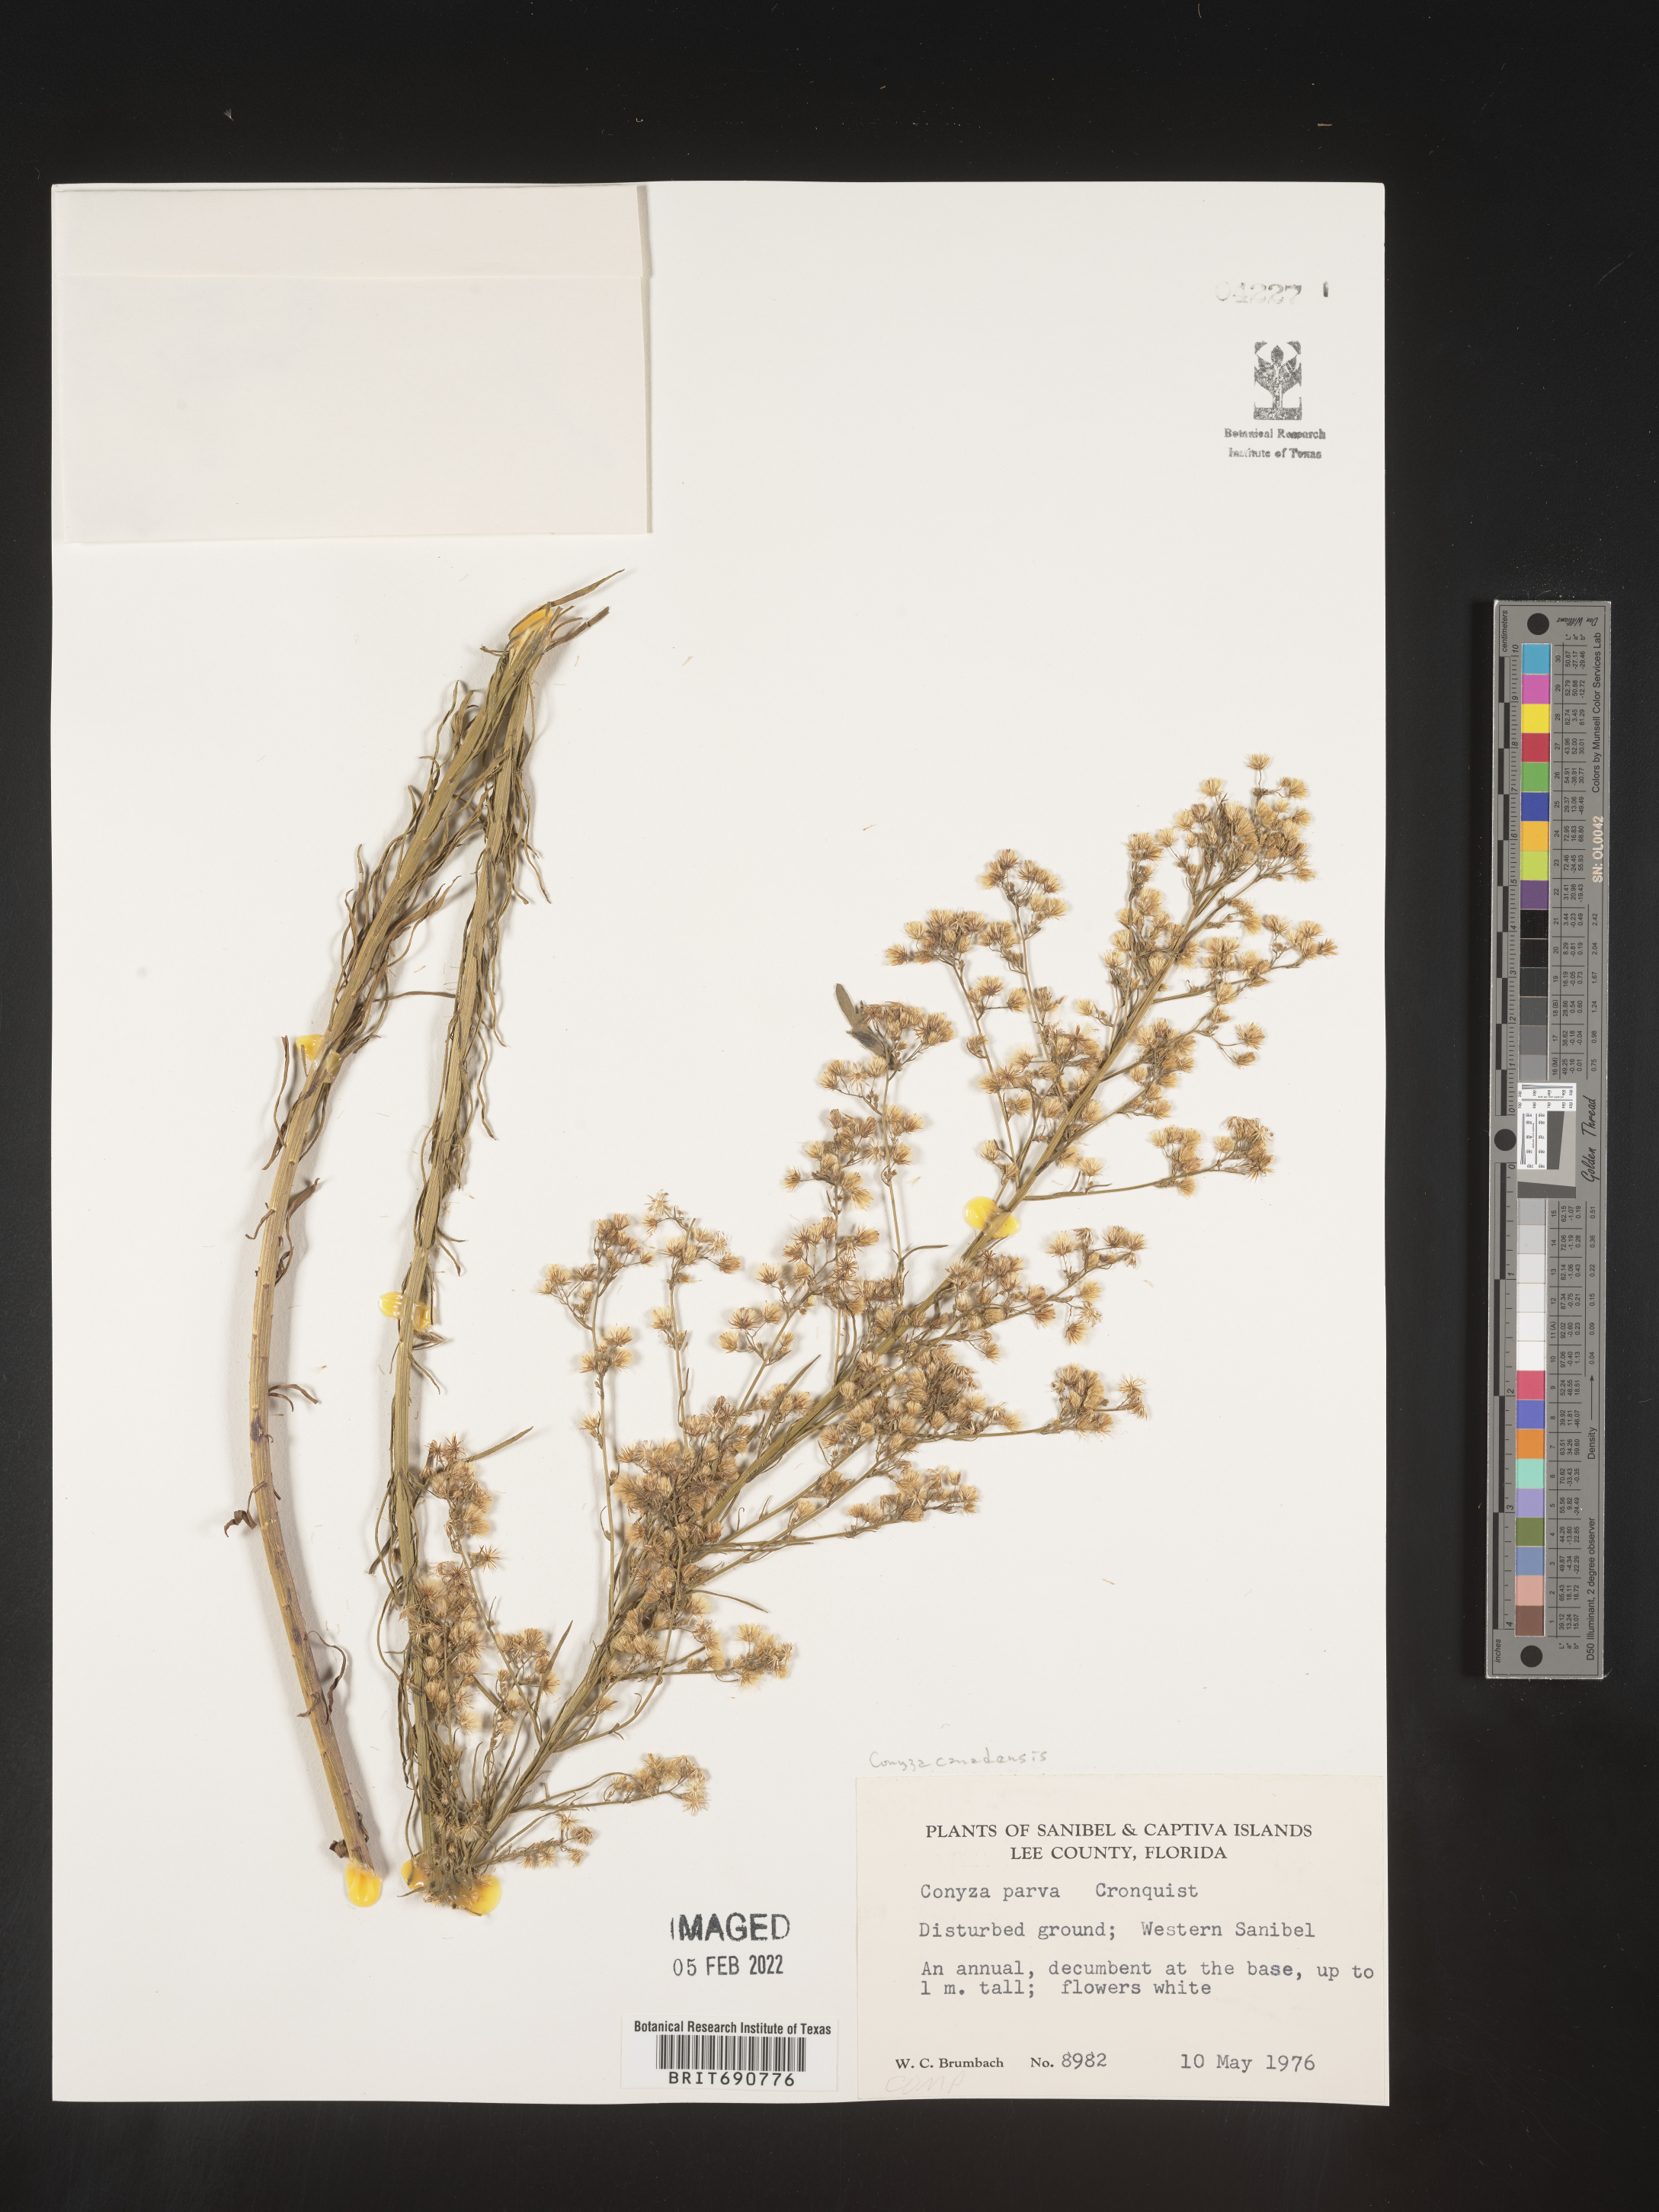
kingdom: Plantae
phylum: Tracheophyta
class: Magnoliopsida
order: Asterales
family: Asteraceae
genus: Erigeron
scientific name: Erigeron canadensis
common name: Canadian fleabane
